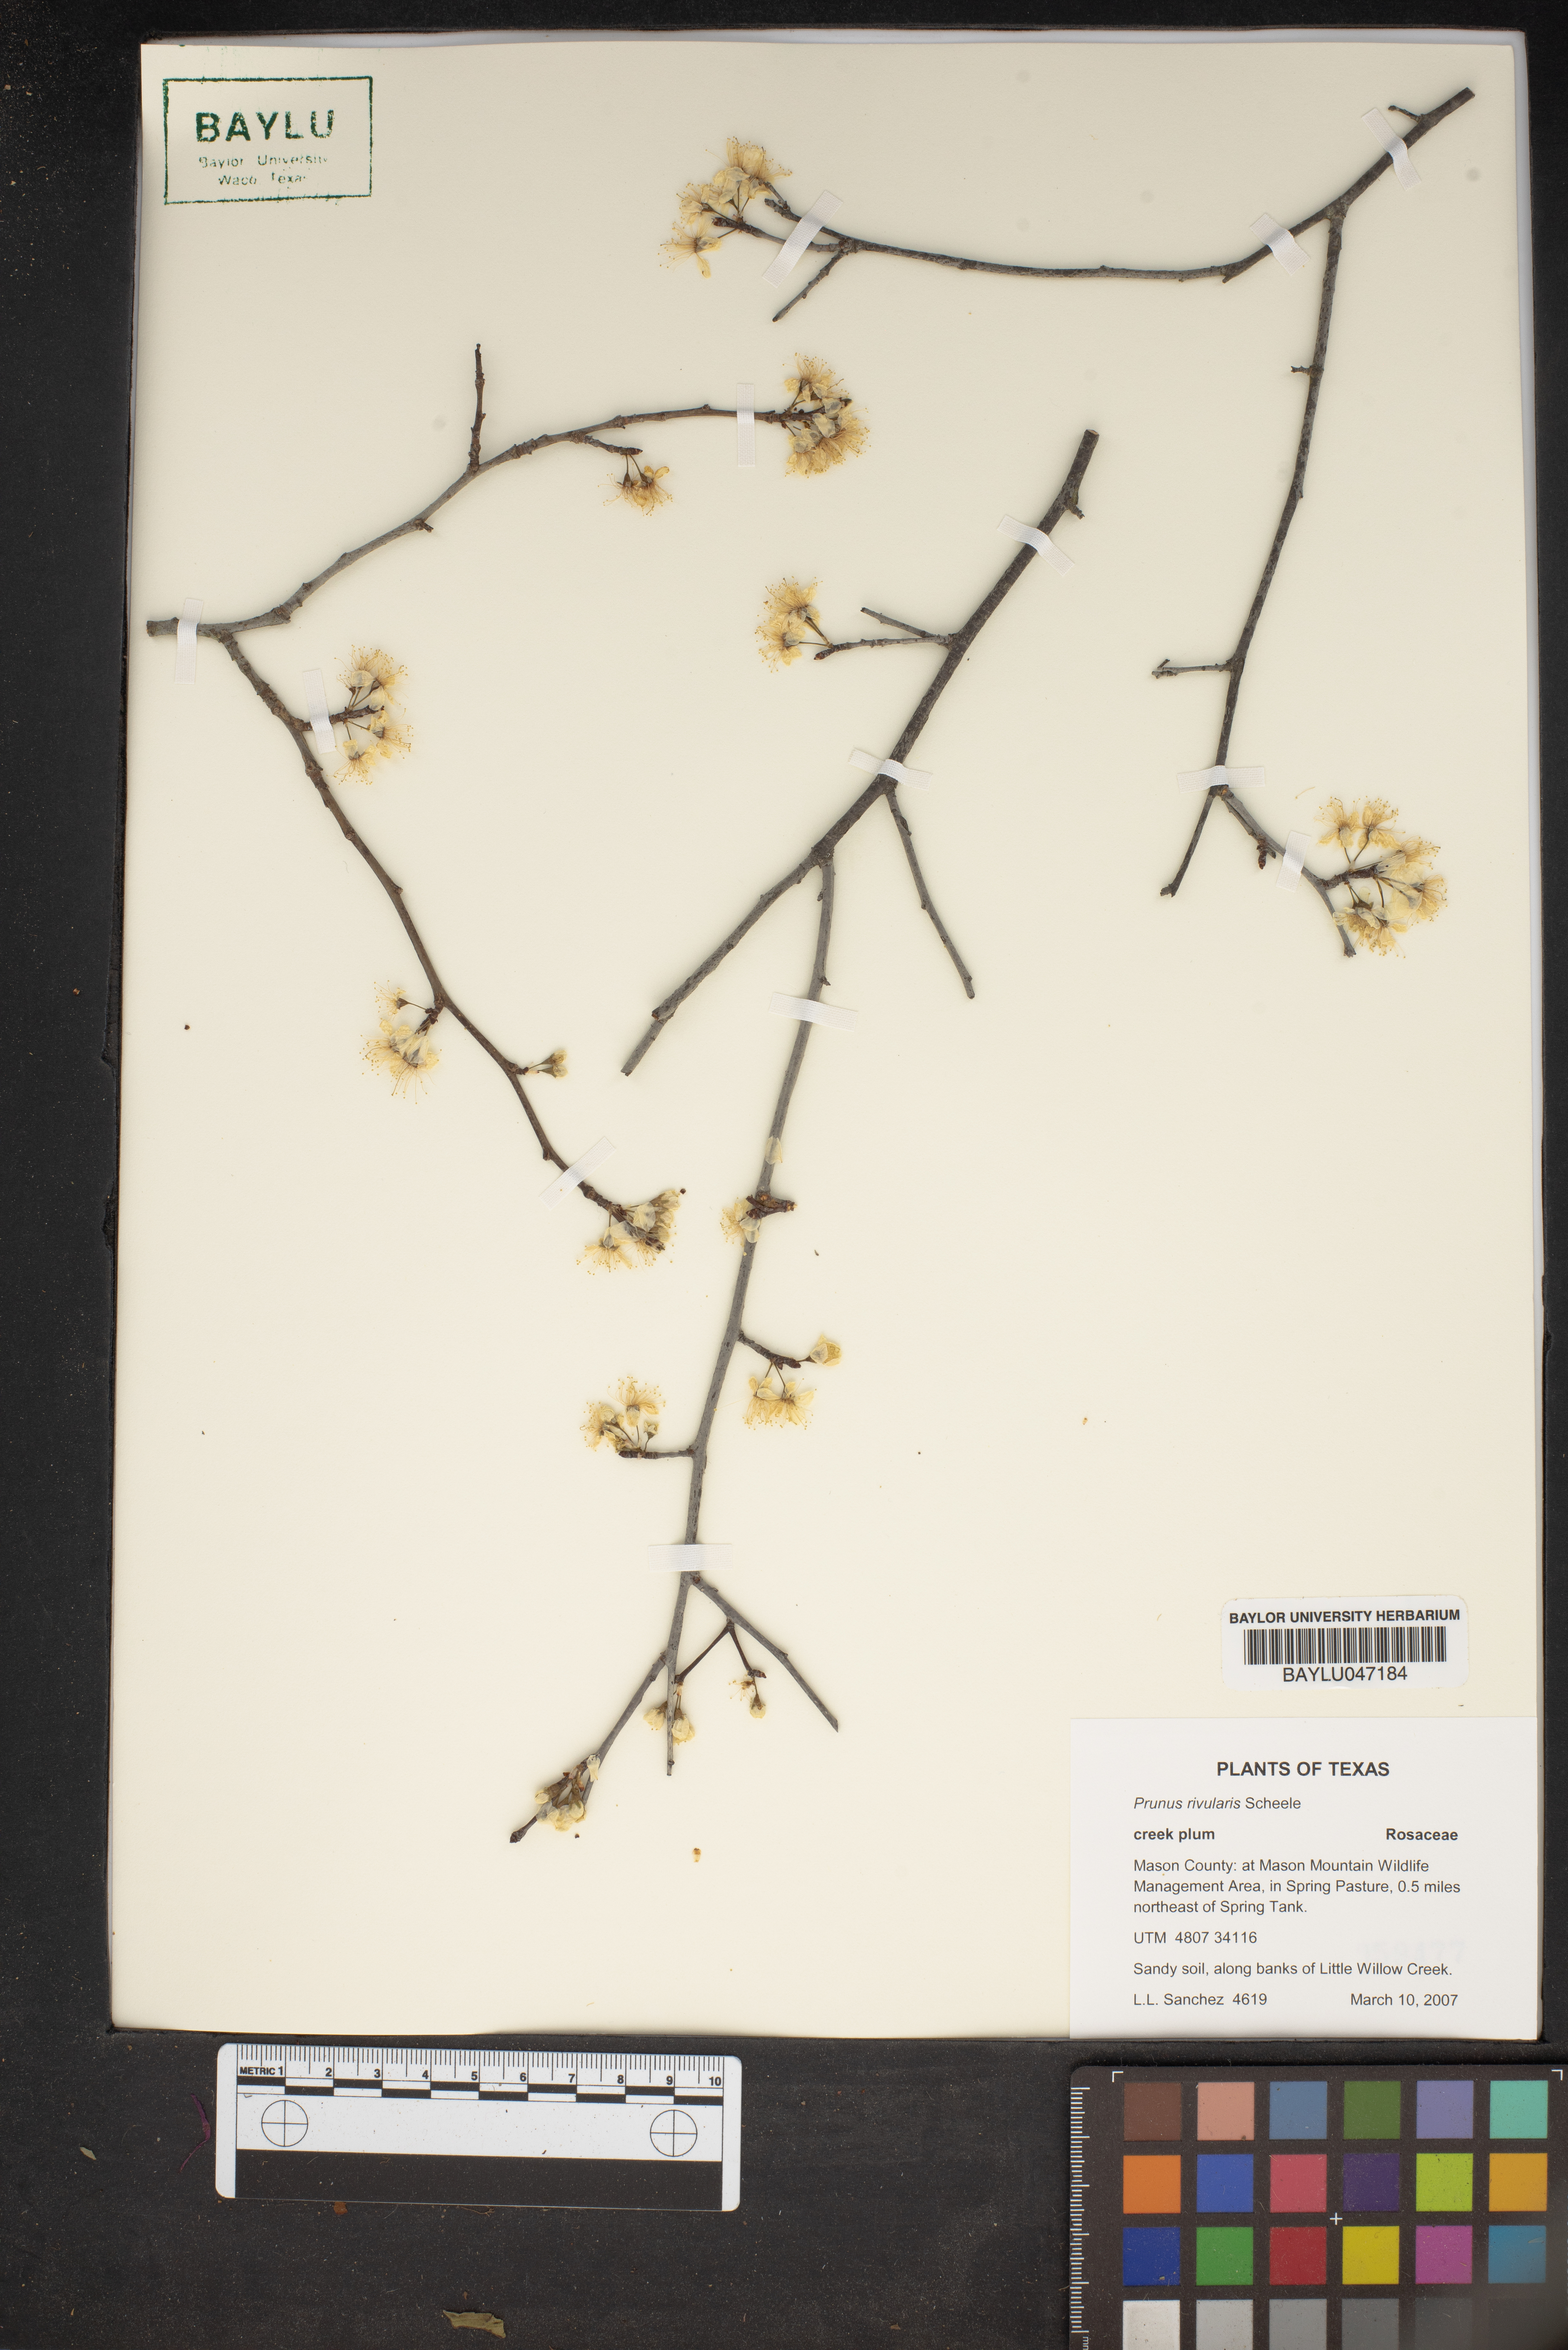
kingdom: Plantae
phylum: Tracheophyta
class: Magnoliopsida
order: Rosales
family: Rosaceae
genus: Prunus
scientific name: Prunus rivularis
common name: Creek plum
